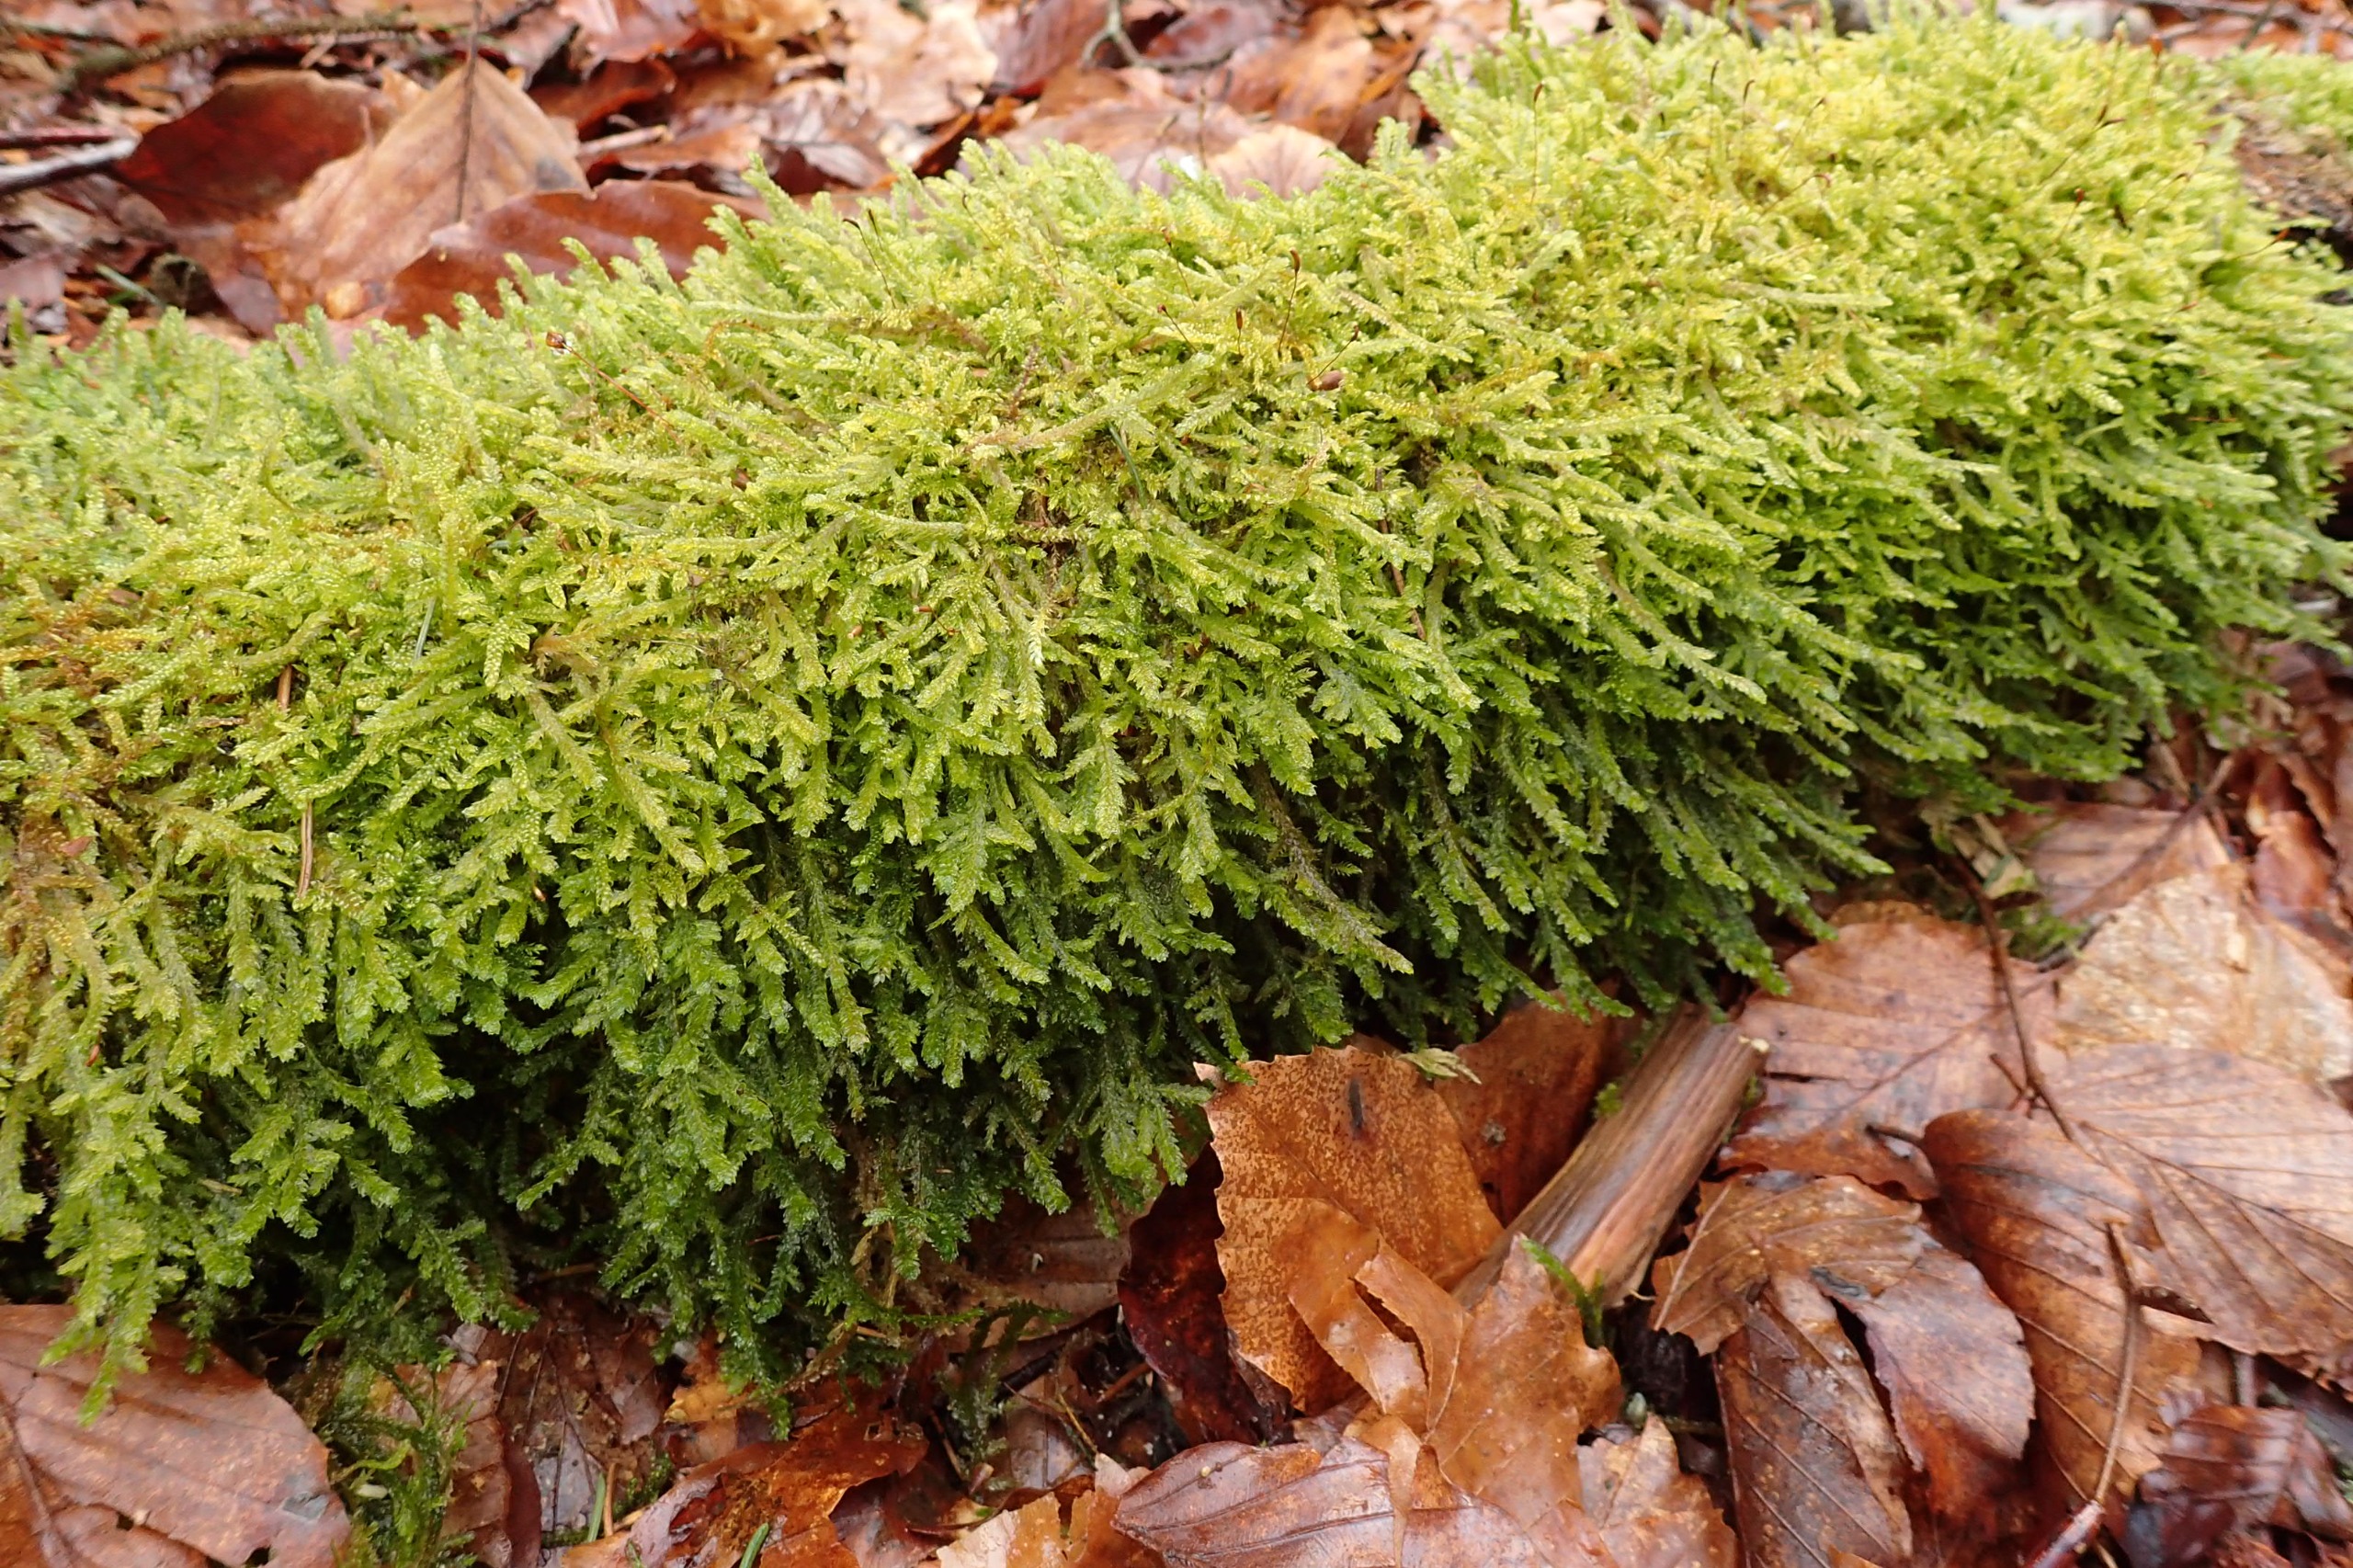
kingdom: Plantae
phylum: Bryophyta
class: Bryopsida
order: Hypnales
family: Neckeraceae
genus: Neckera
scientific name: Neckera pumila
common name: Lav fladmos
